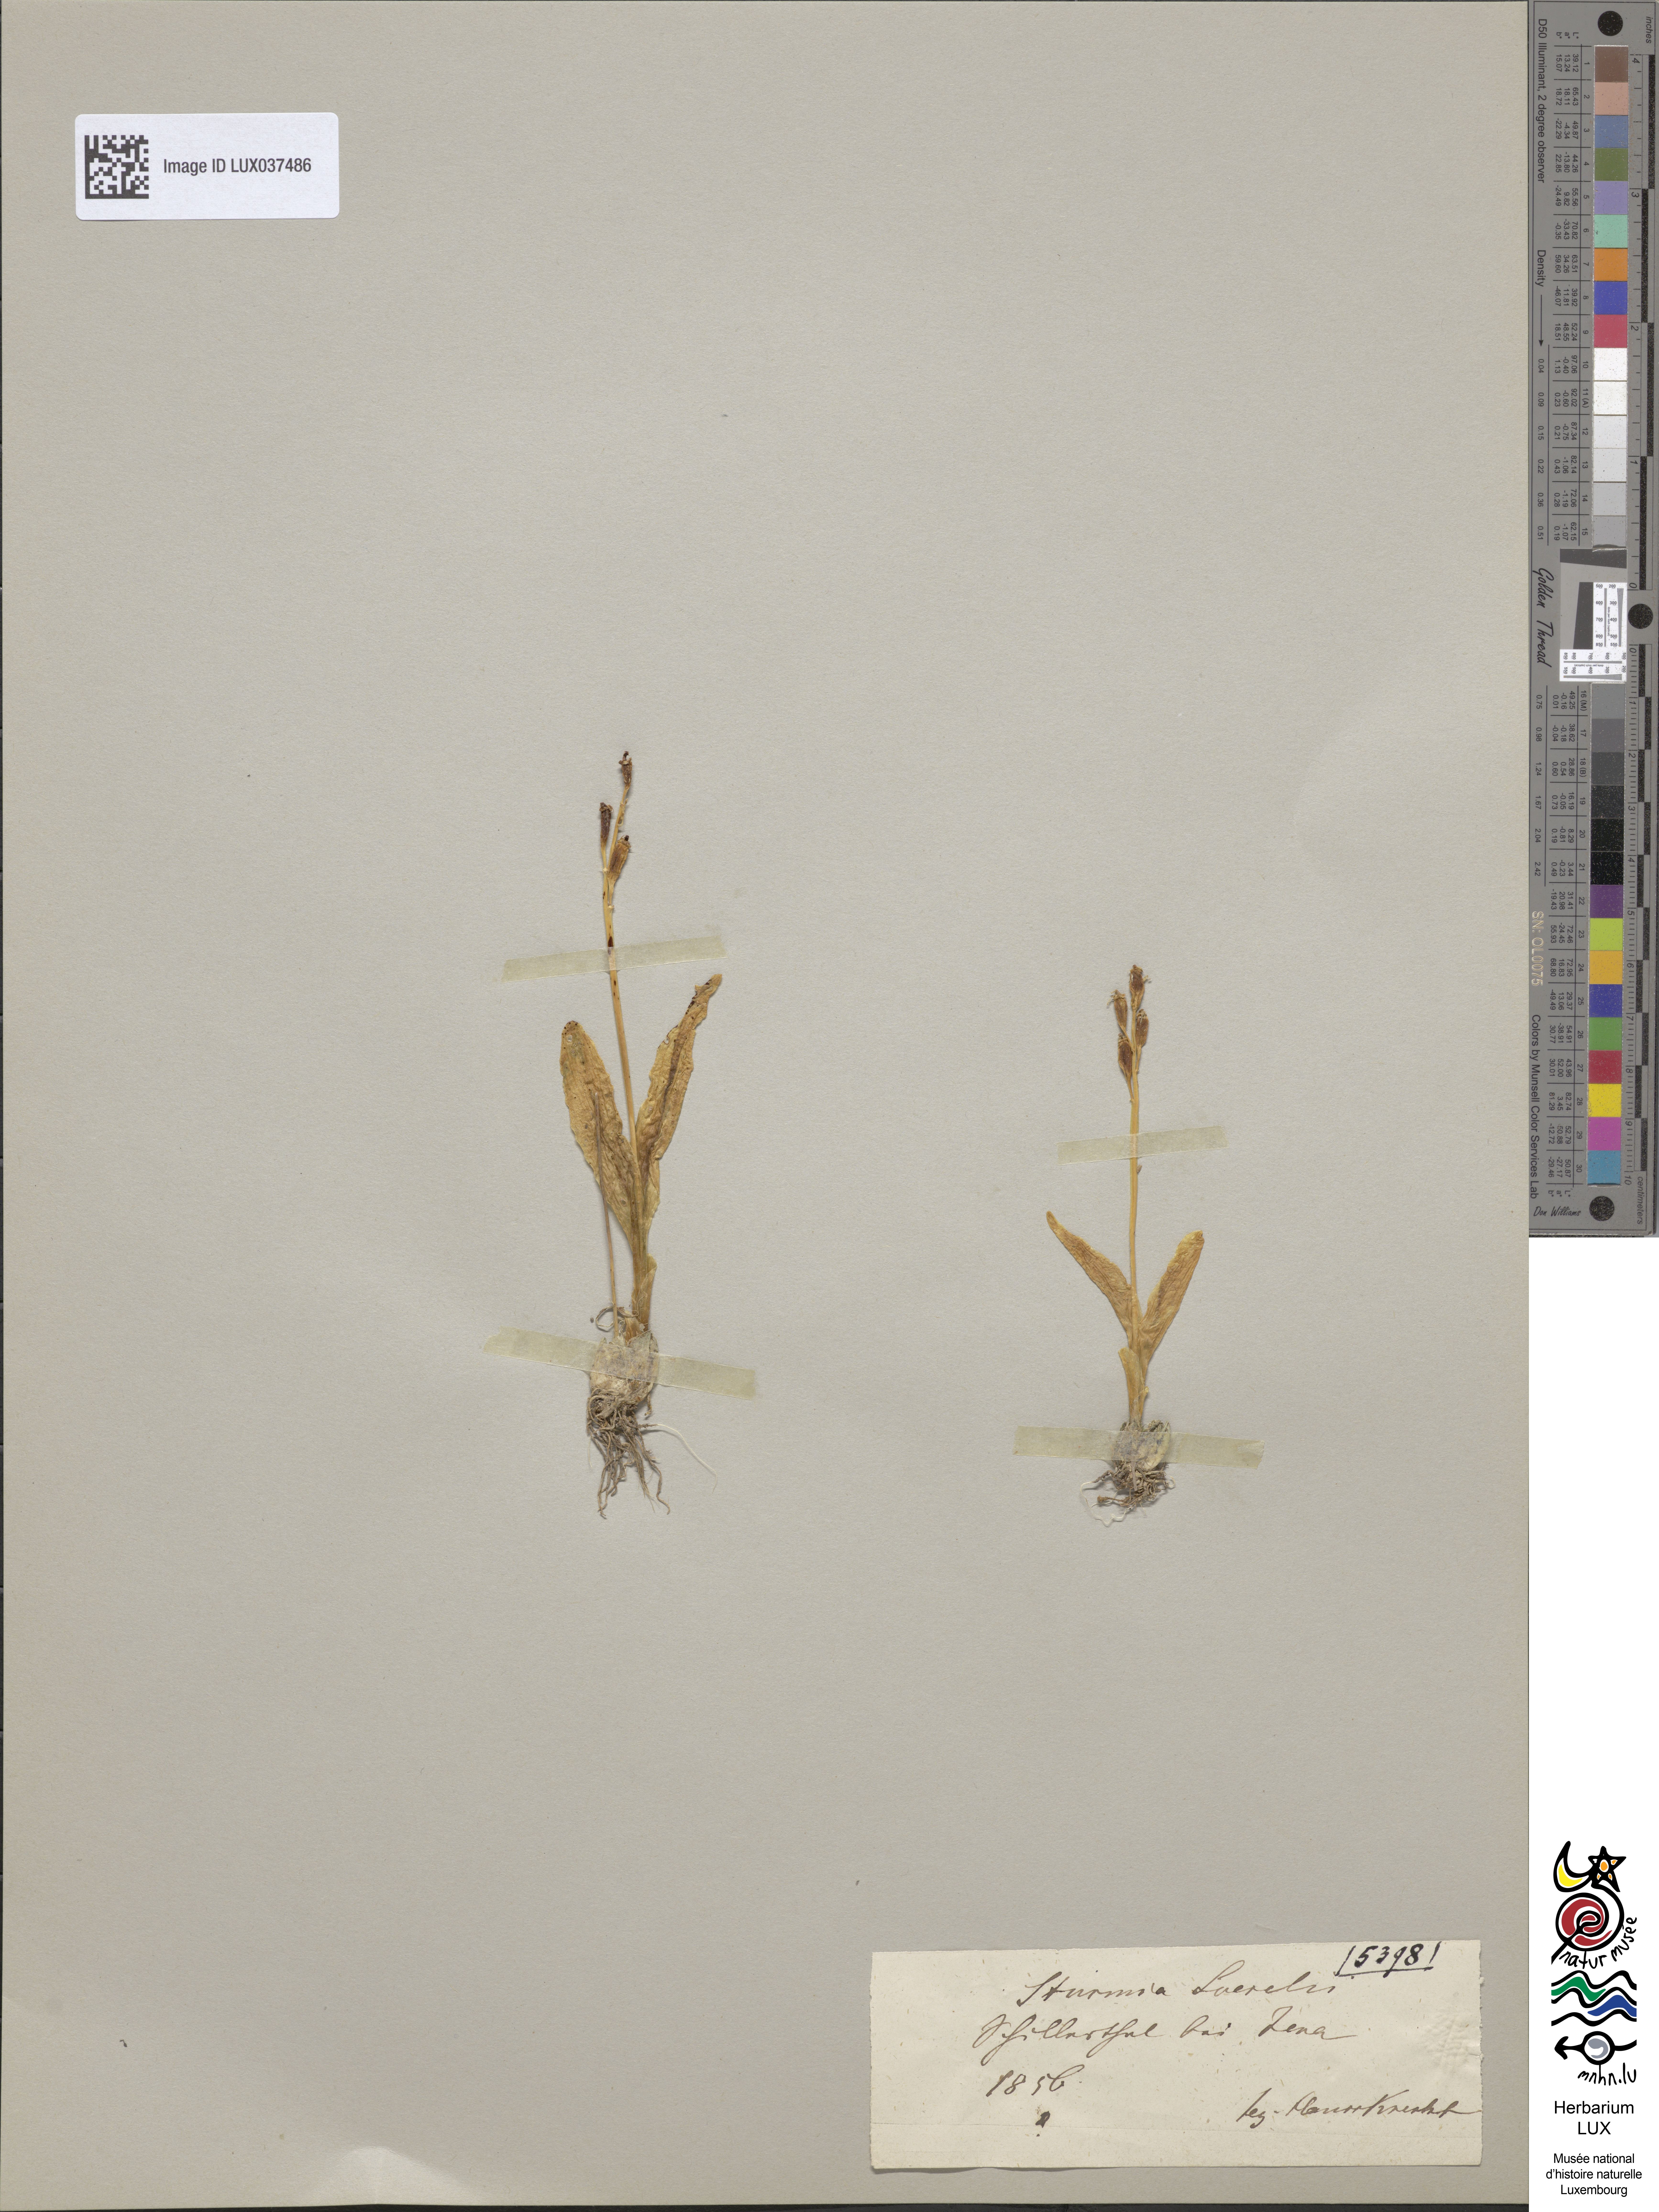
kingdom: Animalia
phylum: Arthropoda
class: Insecta
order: Coleoptera
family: Curculionidae
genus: Liparis
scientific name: Liparis loeselii
